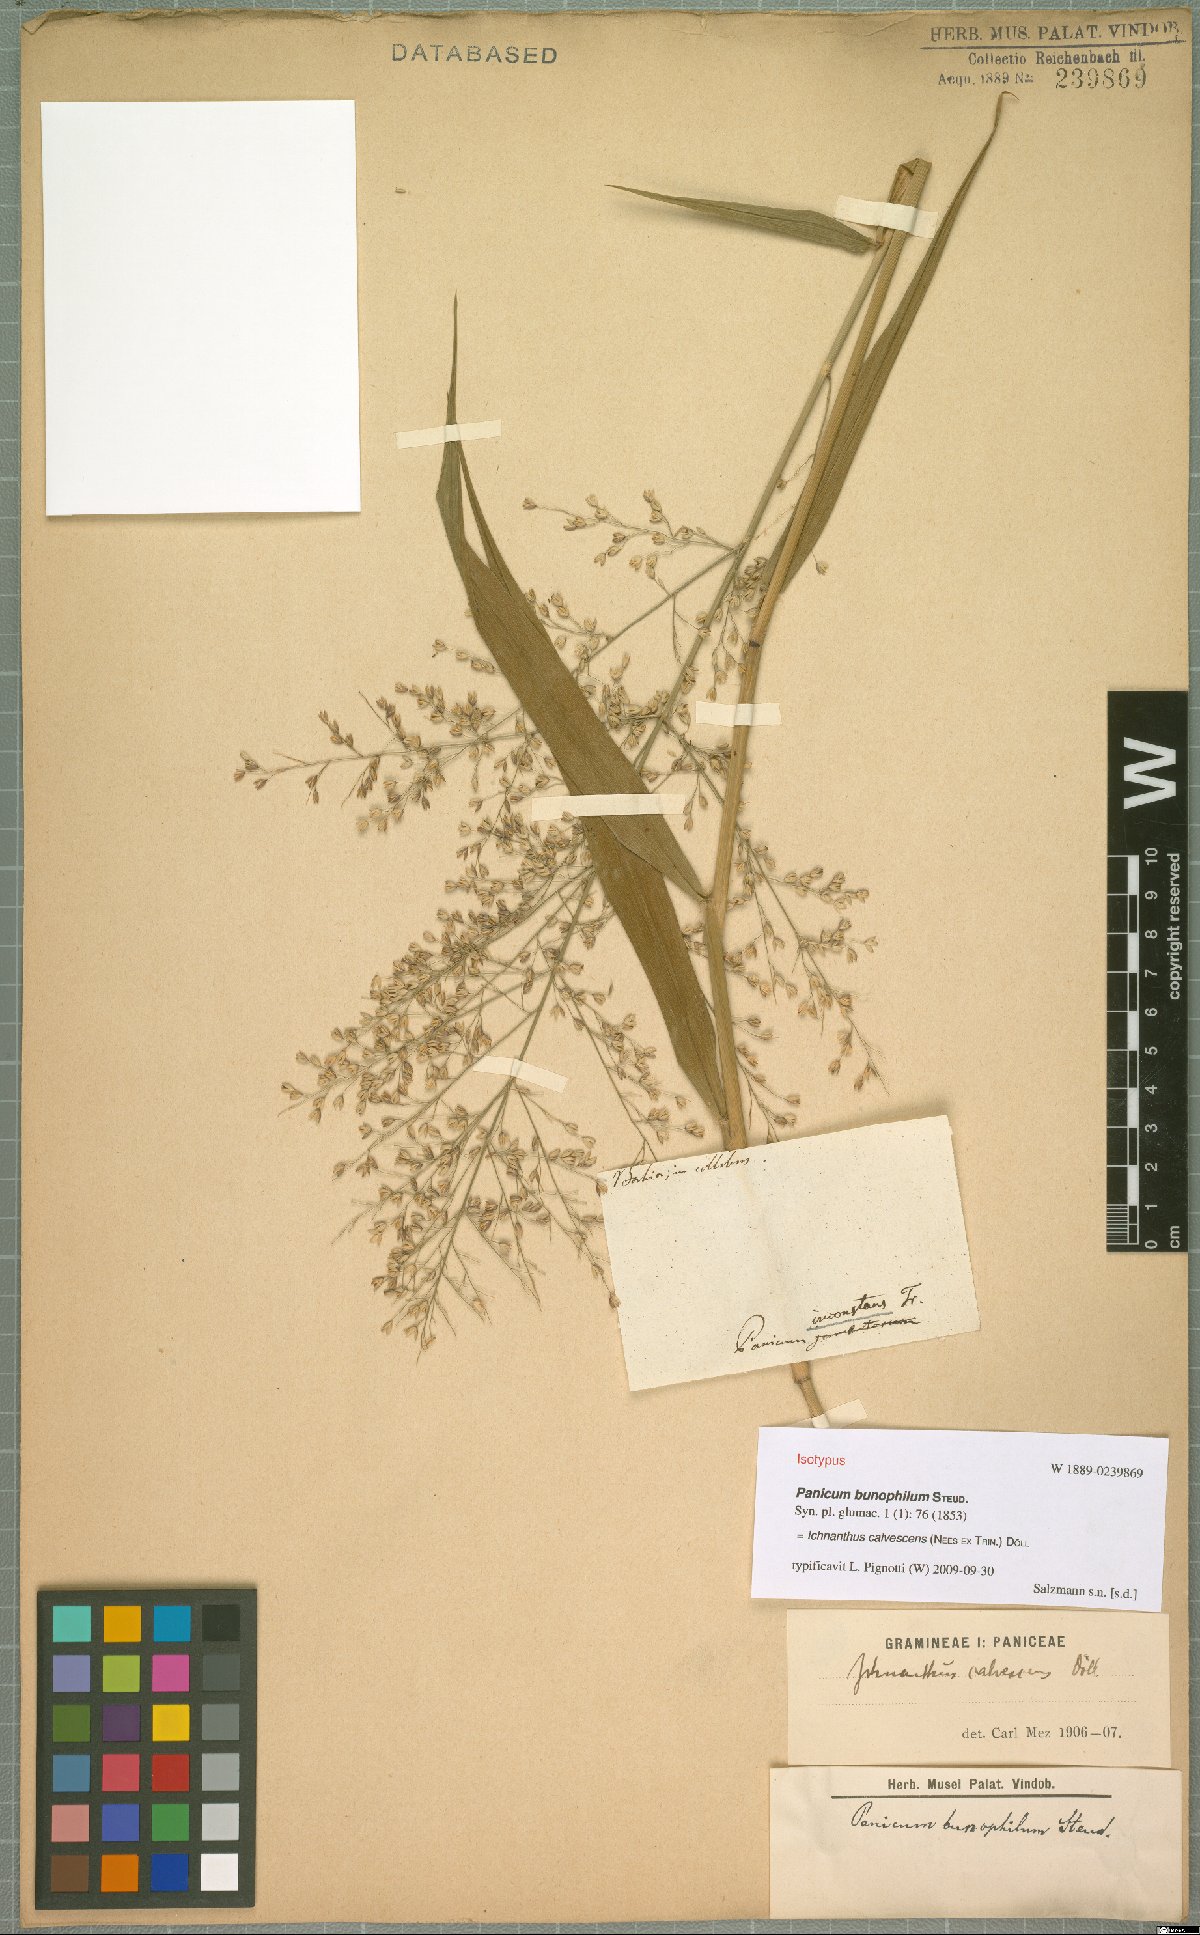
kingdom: Plantae
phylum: Tracheophyta
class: Liliopsida
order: Poales
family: Poaceae
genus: Ichnanthus
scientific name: Ichnanthus calvescens
